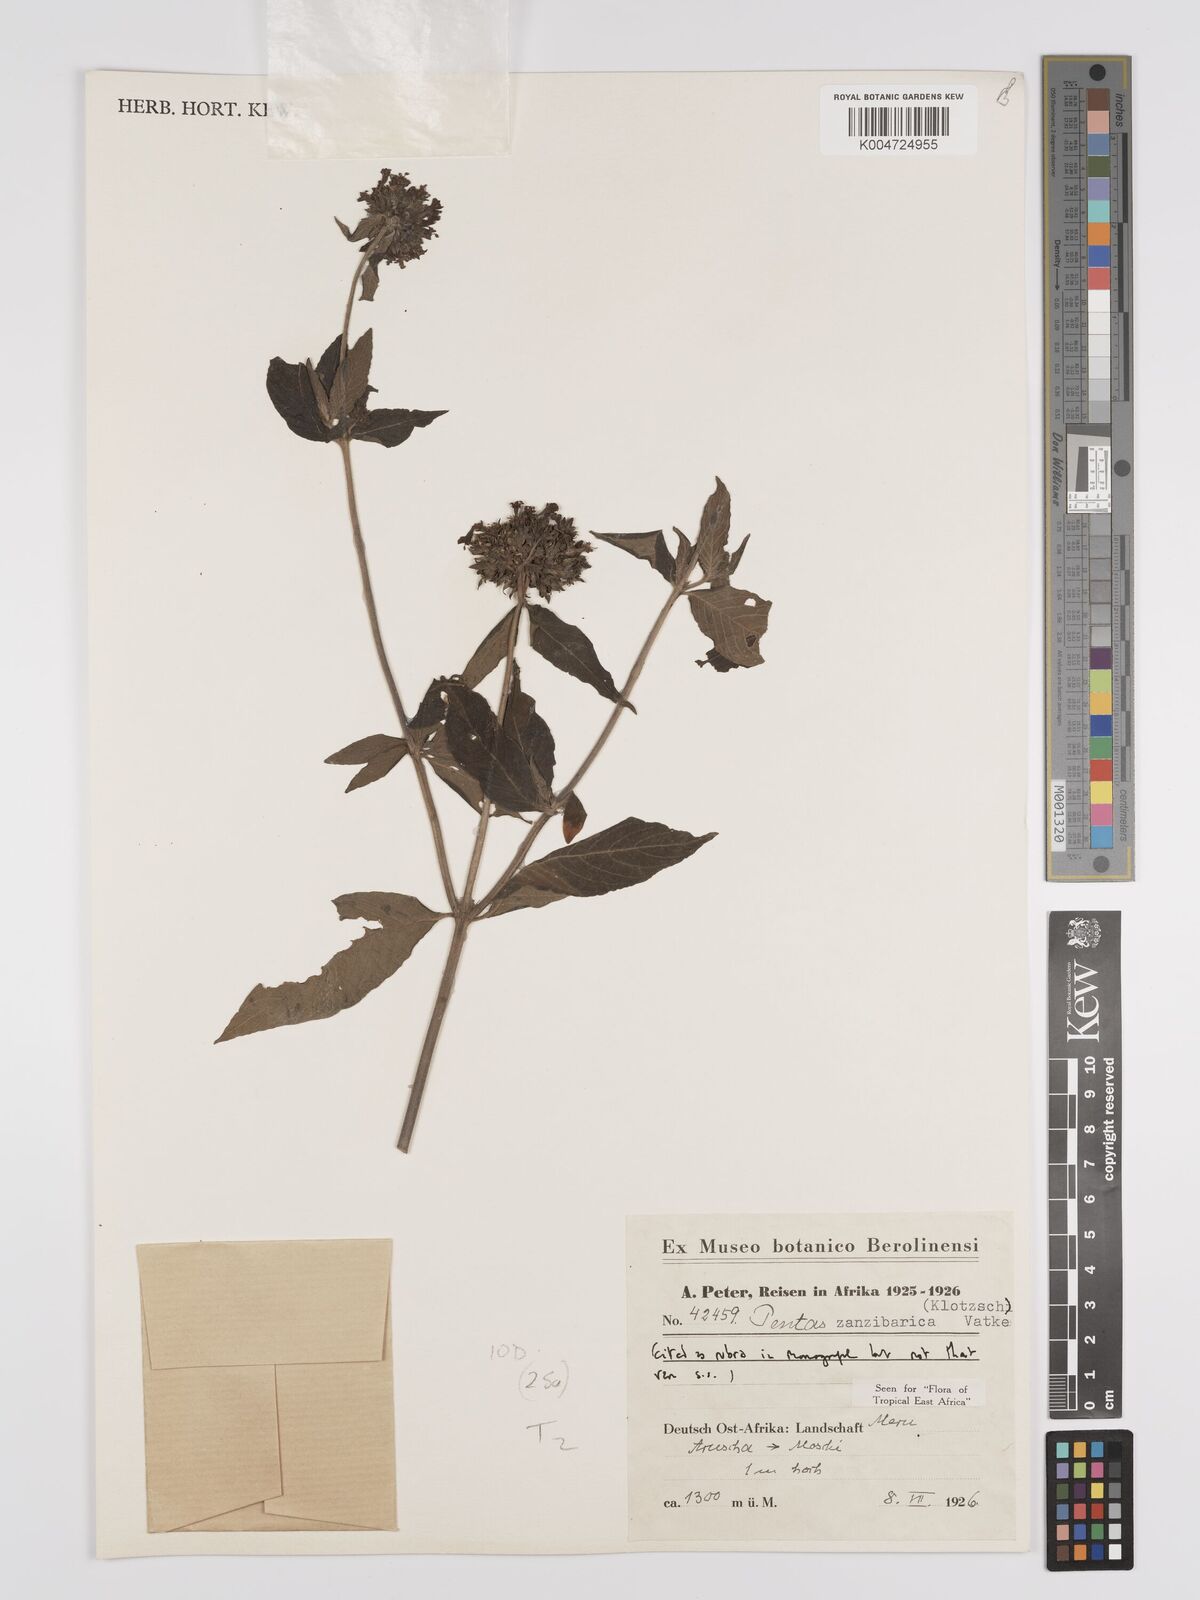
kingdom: Plantae
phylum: Tracheophyta
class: Magnoliopsida
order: Gentianales
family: Rubiaceae
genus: Pentas
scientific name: Pentas zanzibarica
